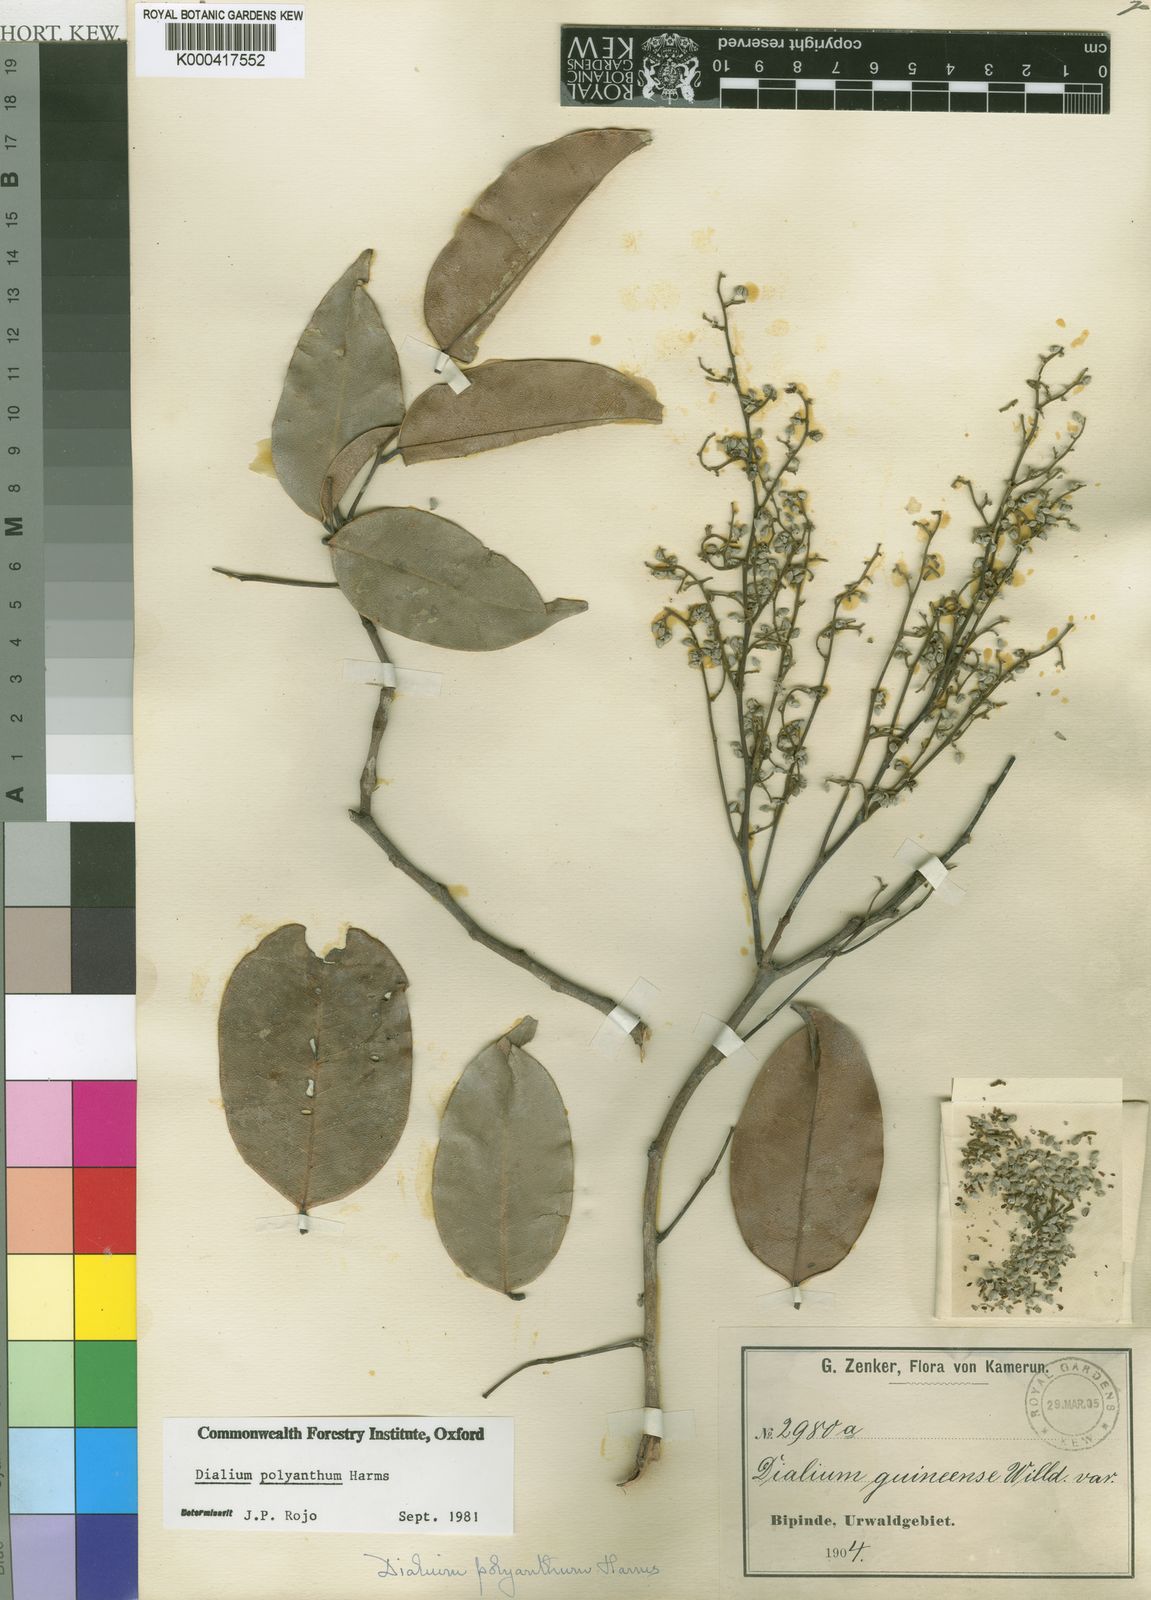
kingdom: Plantae
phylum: Tracheophyta
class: Magnoliopsida
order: Fabales
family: Fabaceae
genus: Dialium
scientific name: Dialium polyanthum
